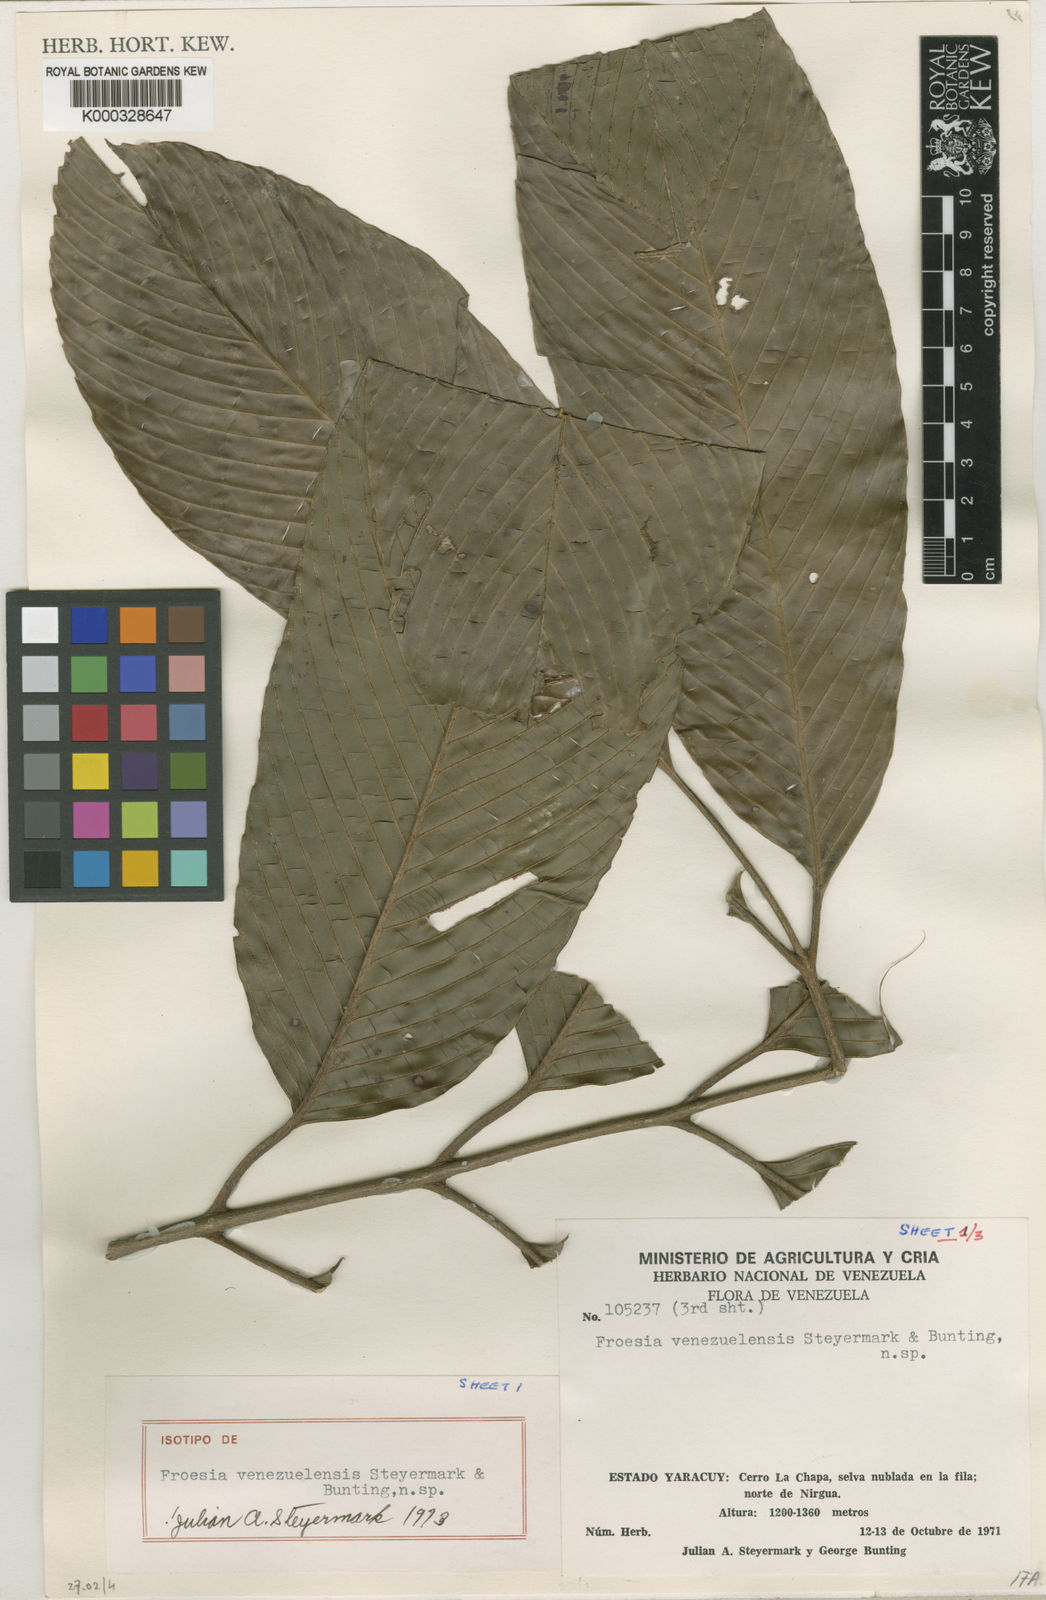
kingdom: Plantae
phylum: Tracheophyta
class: Magnoliopsida
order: Malpighiales
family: Quiinaceae
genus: Froesia
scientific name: Froesia venezuelensis
